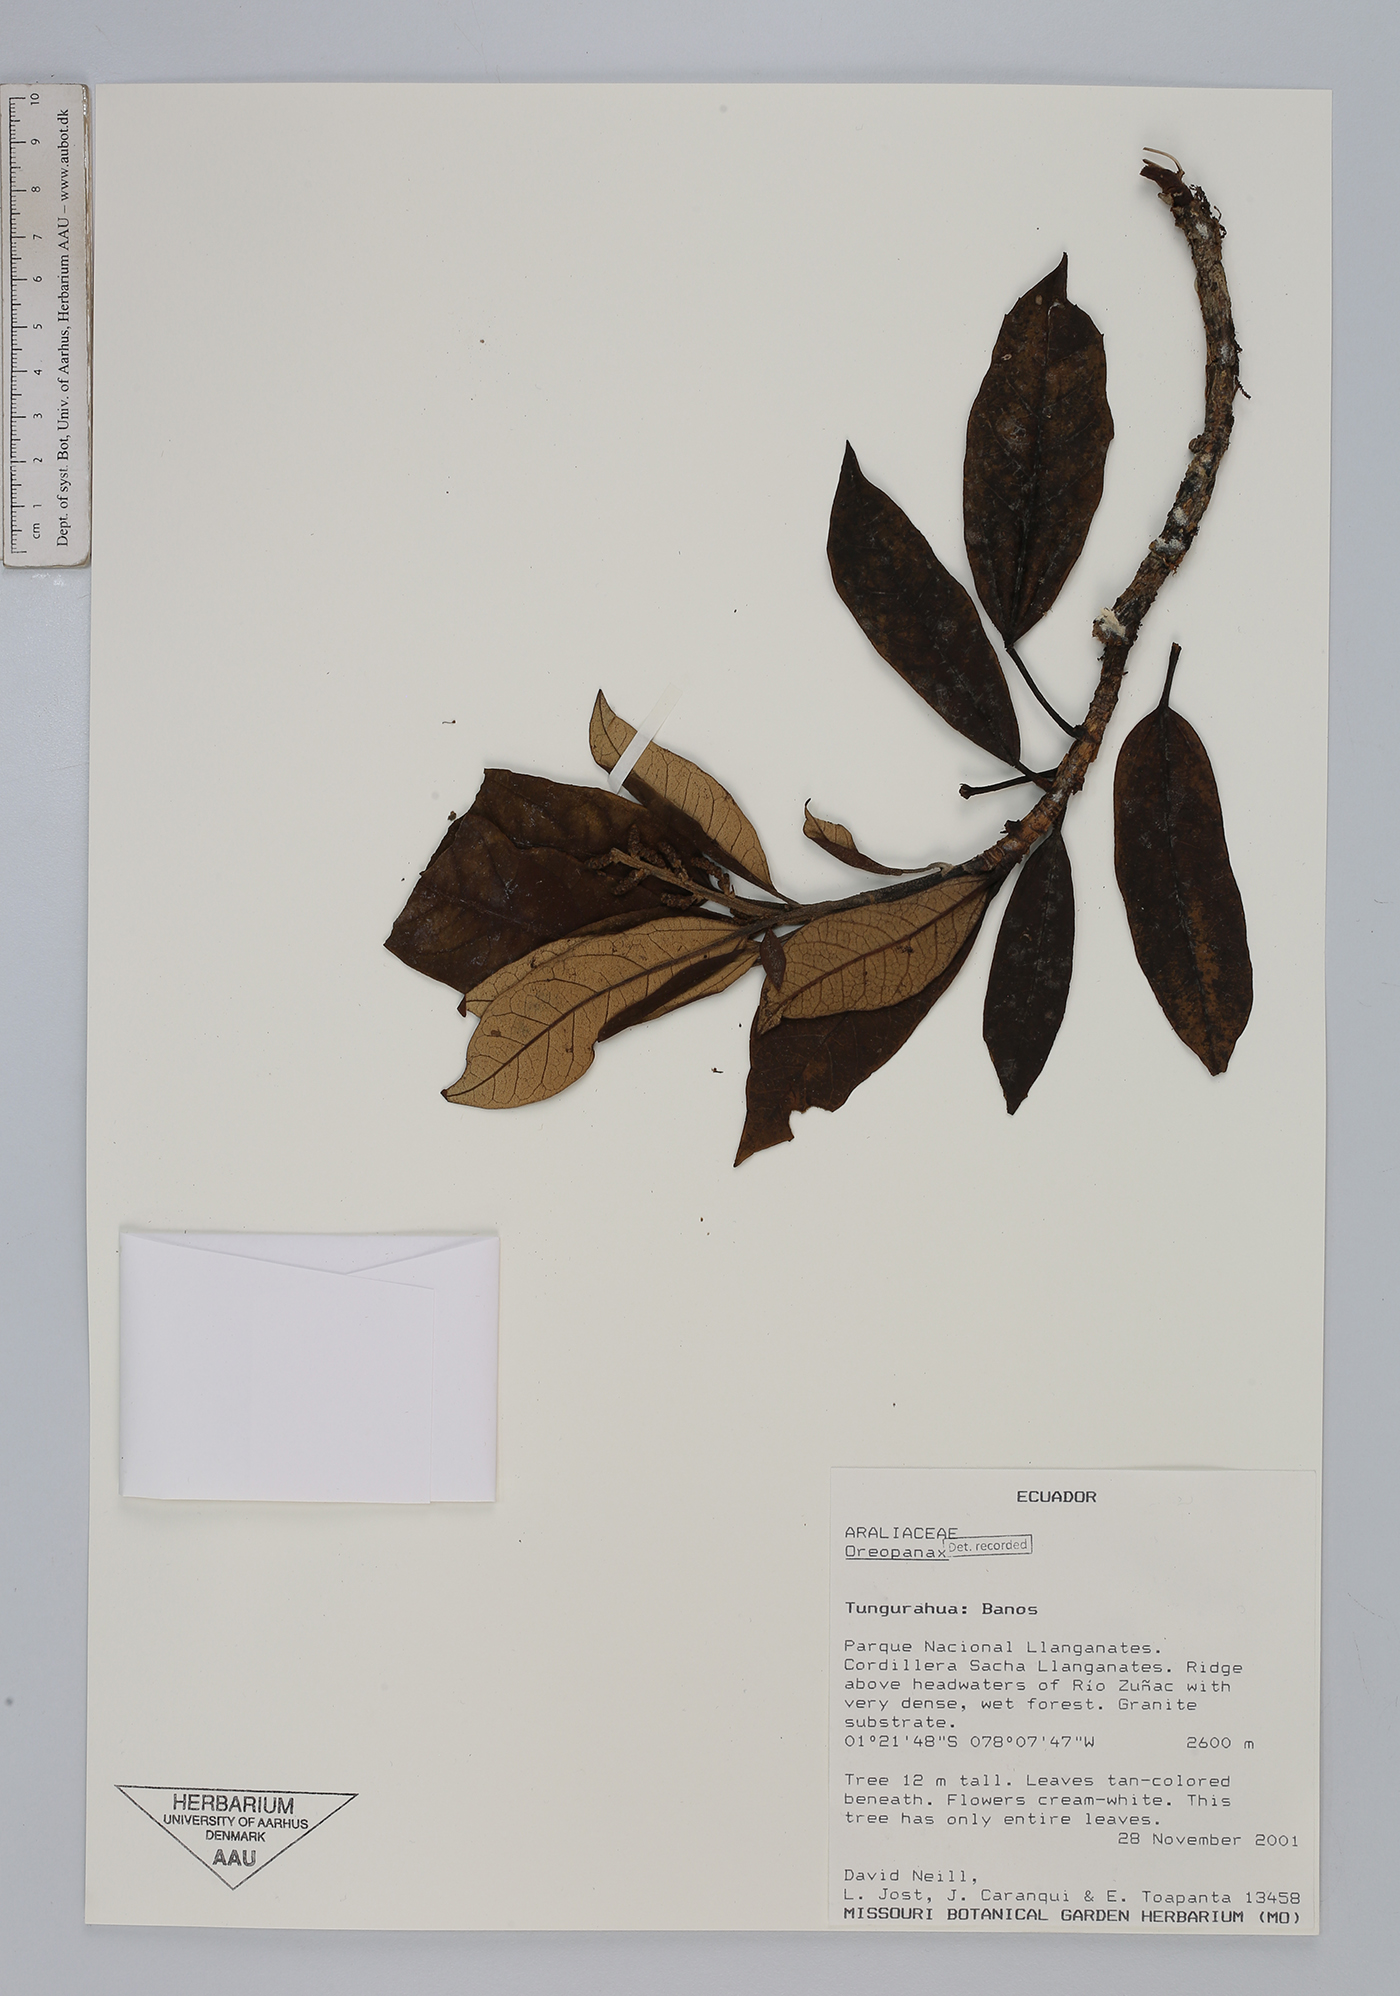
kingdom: Plantae
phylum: Tracheophyta
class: Magnoliopsida
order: Apiales
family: Araliaceae
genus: Oreopanax
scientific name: Oreopanax
